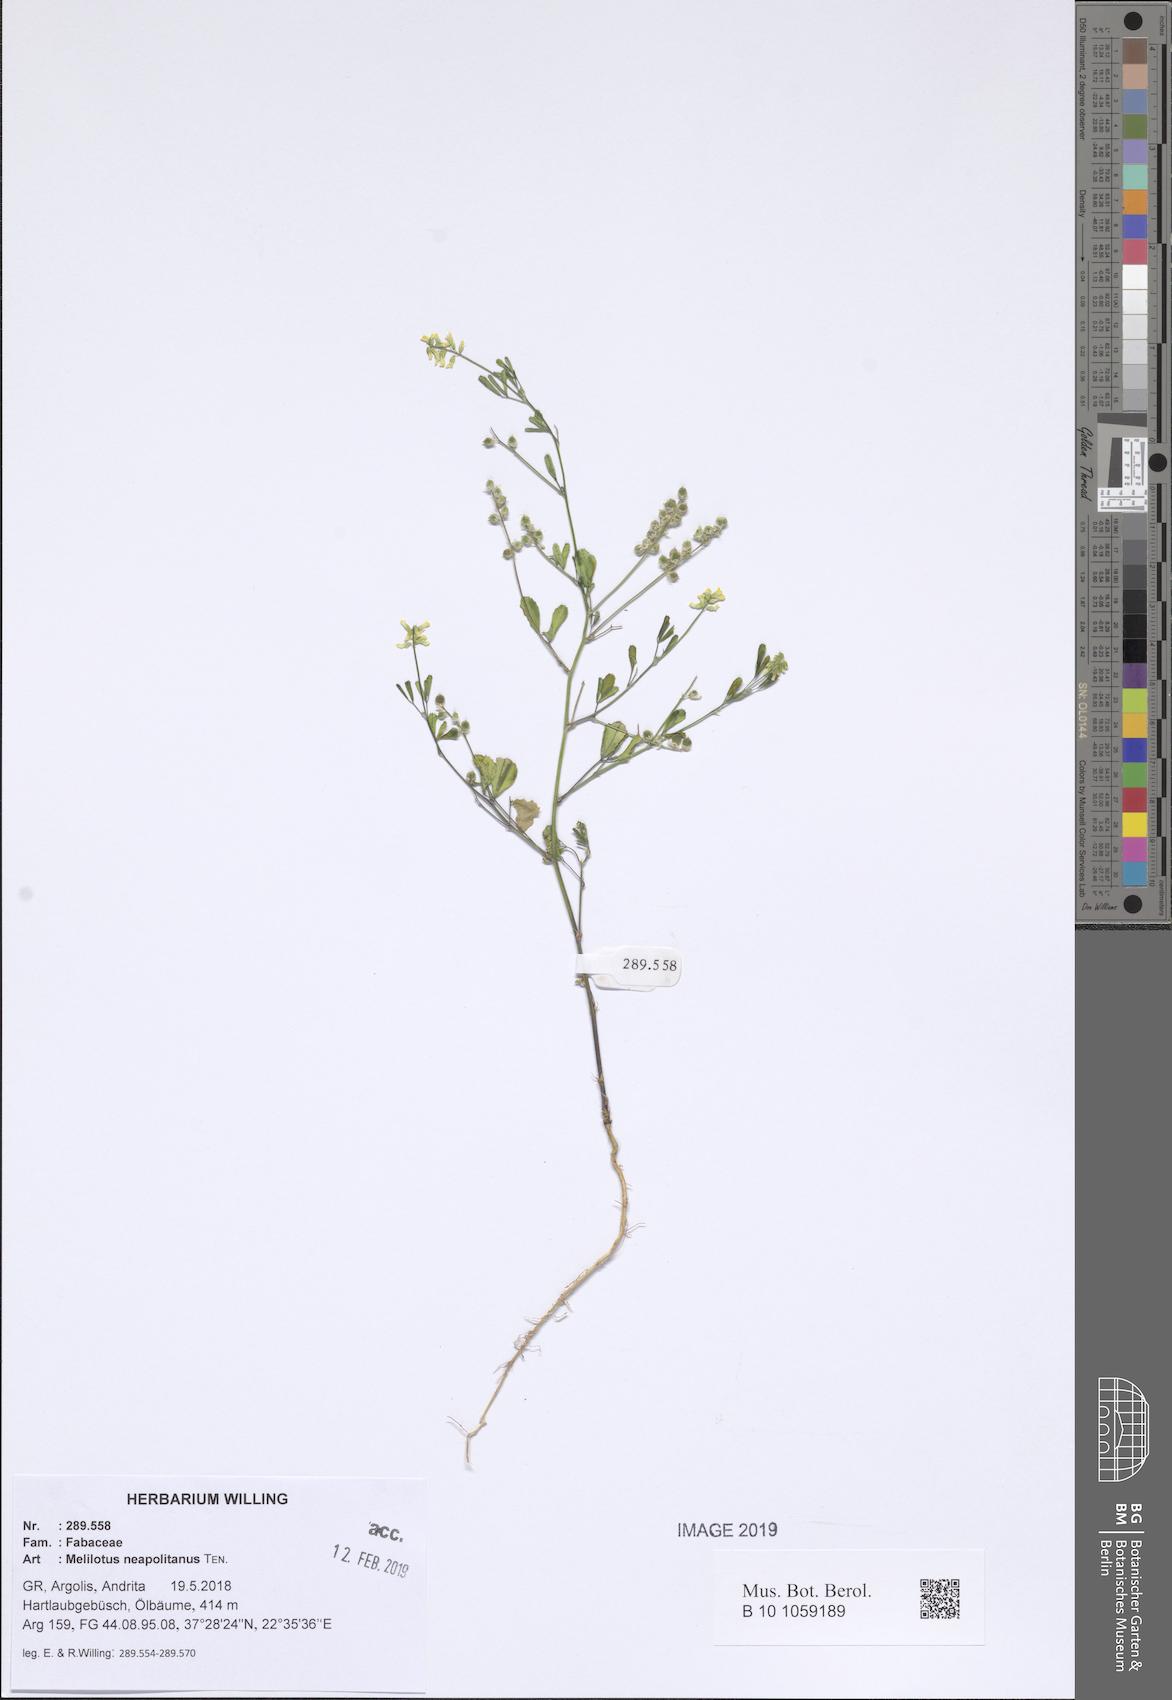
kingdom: Plantae
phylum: Tracheophyta
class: Magnoliopsida
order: Fabales
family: Fabaceae
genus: Melilotus
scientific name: Melilotus neapolitanus
